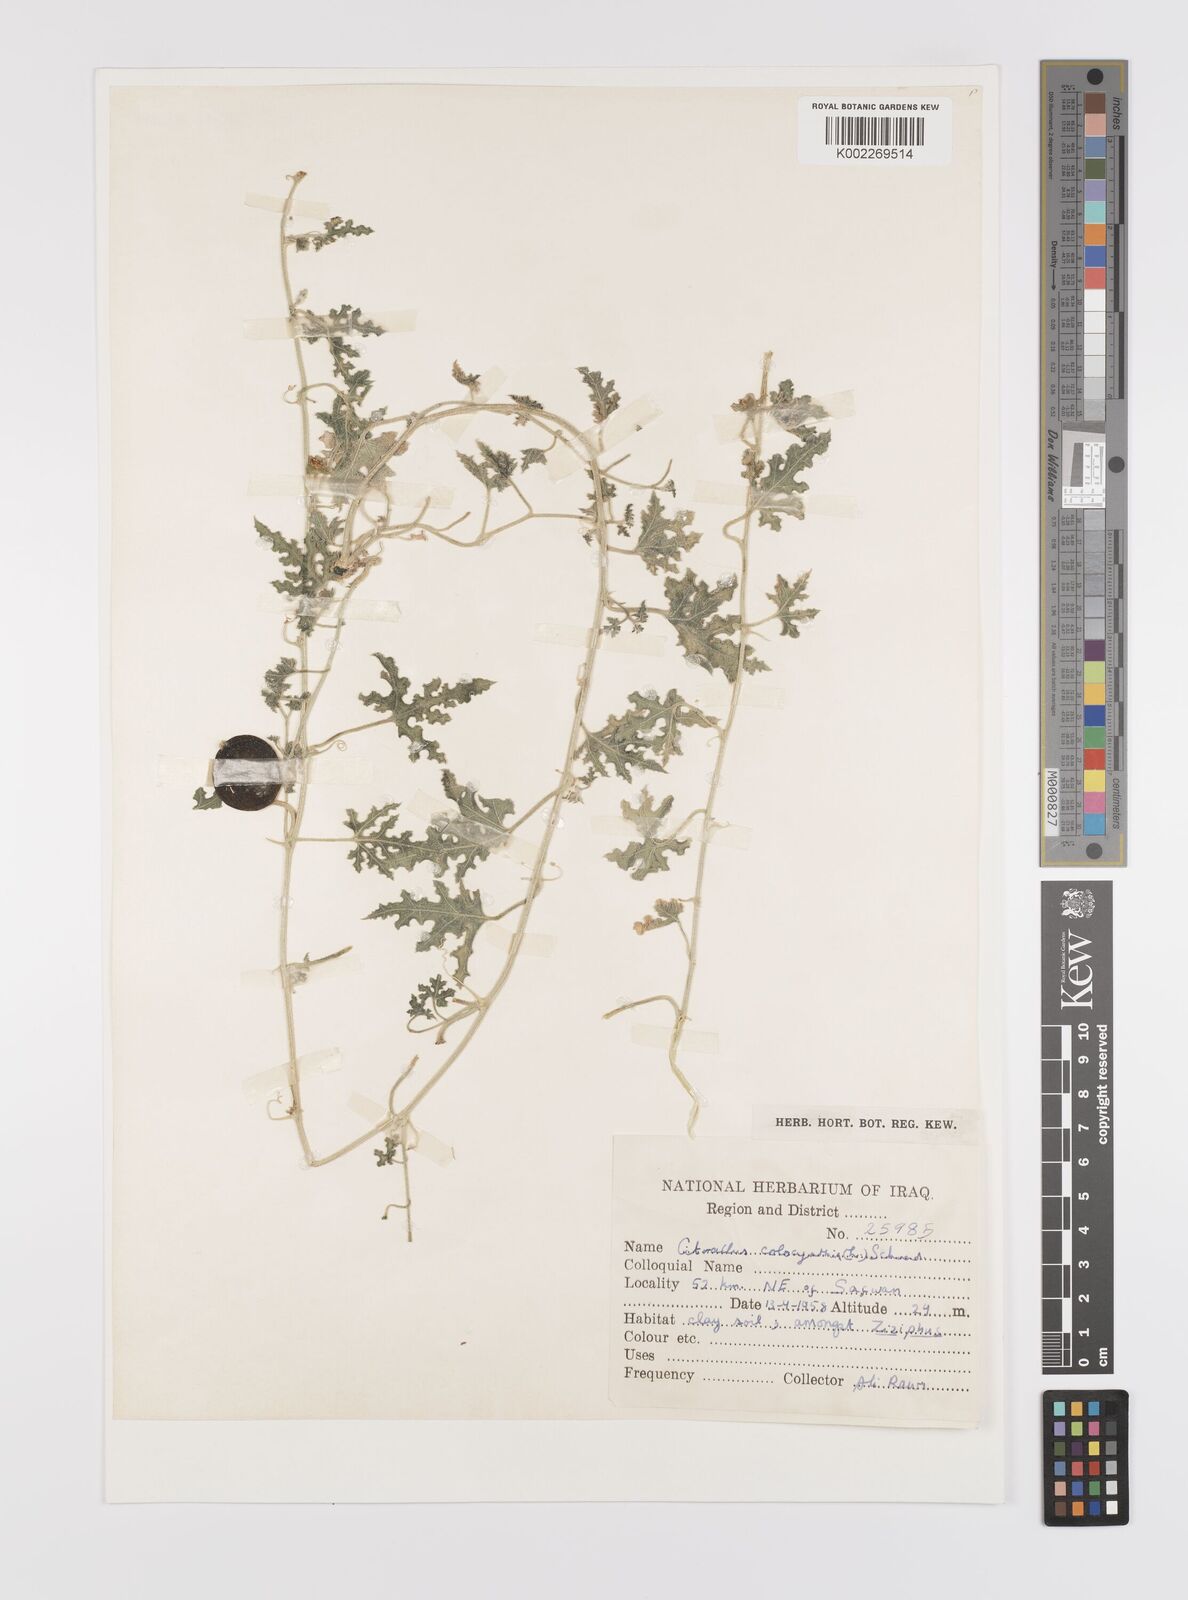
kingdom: Plantae
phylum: Tracheophyta
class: Magnoliopsida
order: Cucurbitales
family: Cucurbitaceae
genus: Citrullus
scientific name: Citrullus colocynthis
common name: Colocynth
